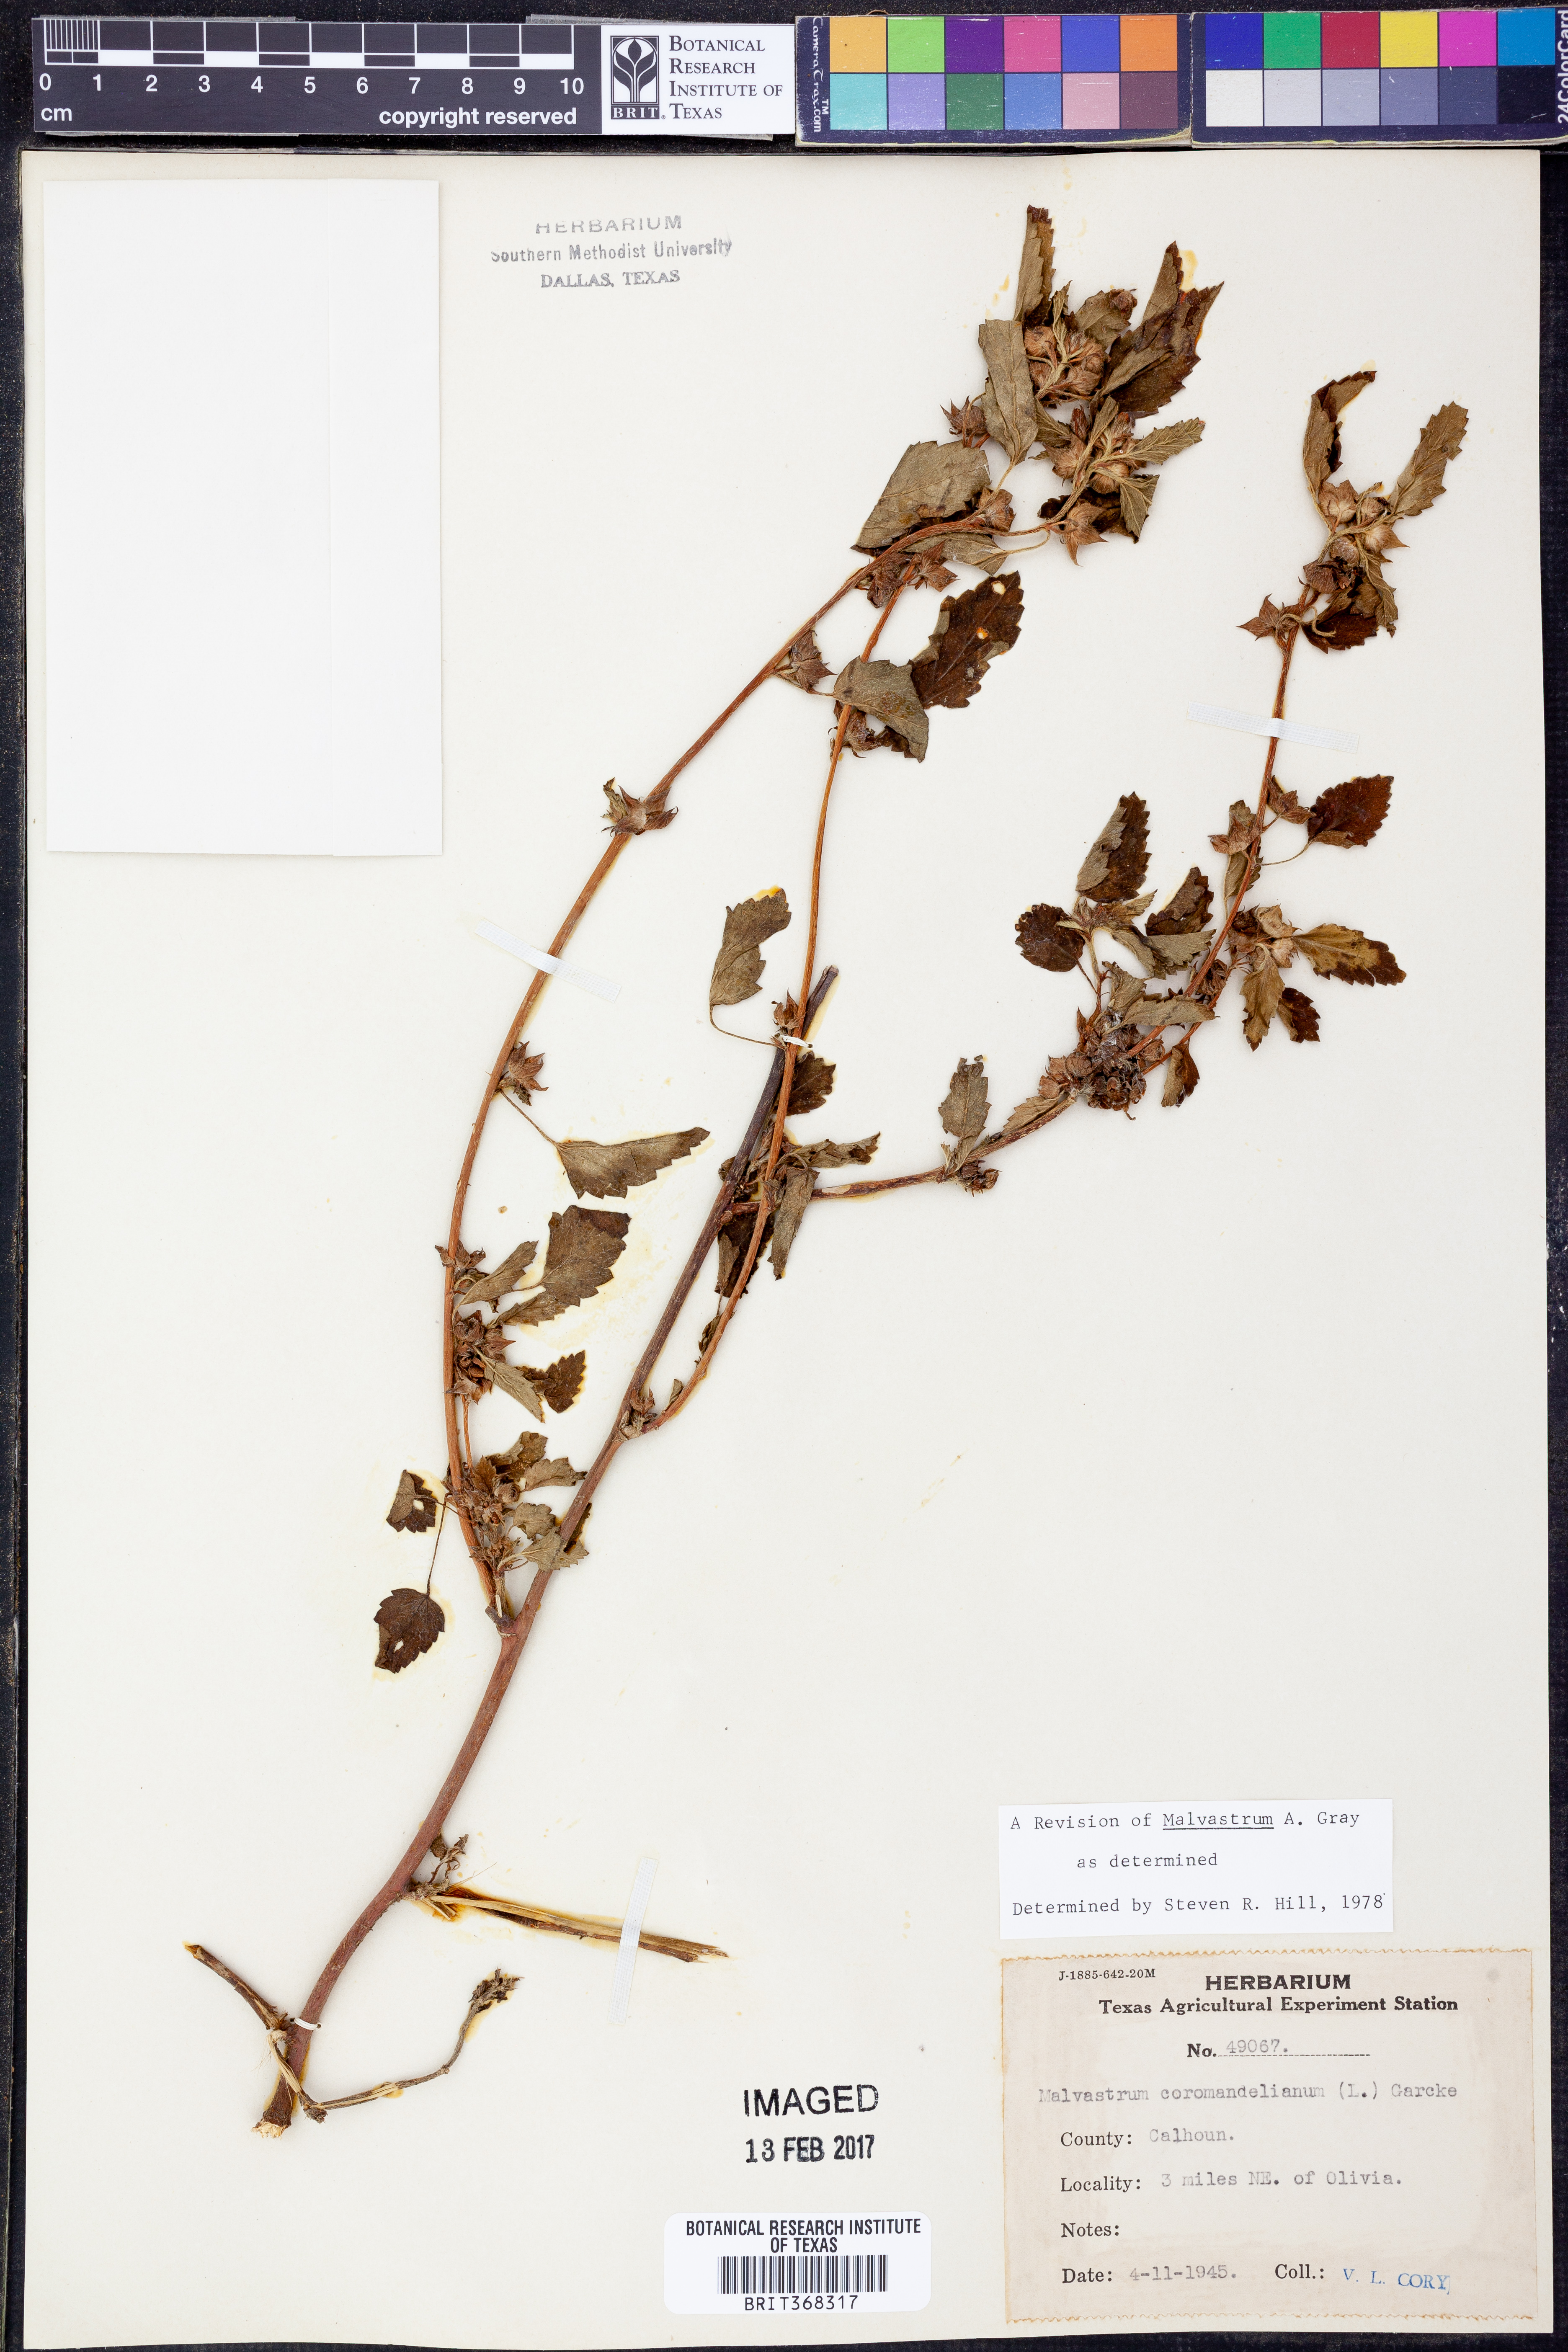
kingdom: Plantae
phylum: Tracheophyta
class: Magnoliopsida
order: Malvales
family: Malvaceae
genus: Malvastrum
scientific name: Malvastrum coromandelianum
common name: Threelobe false mallow
